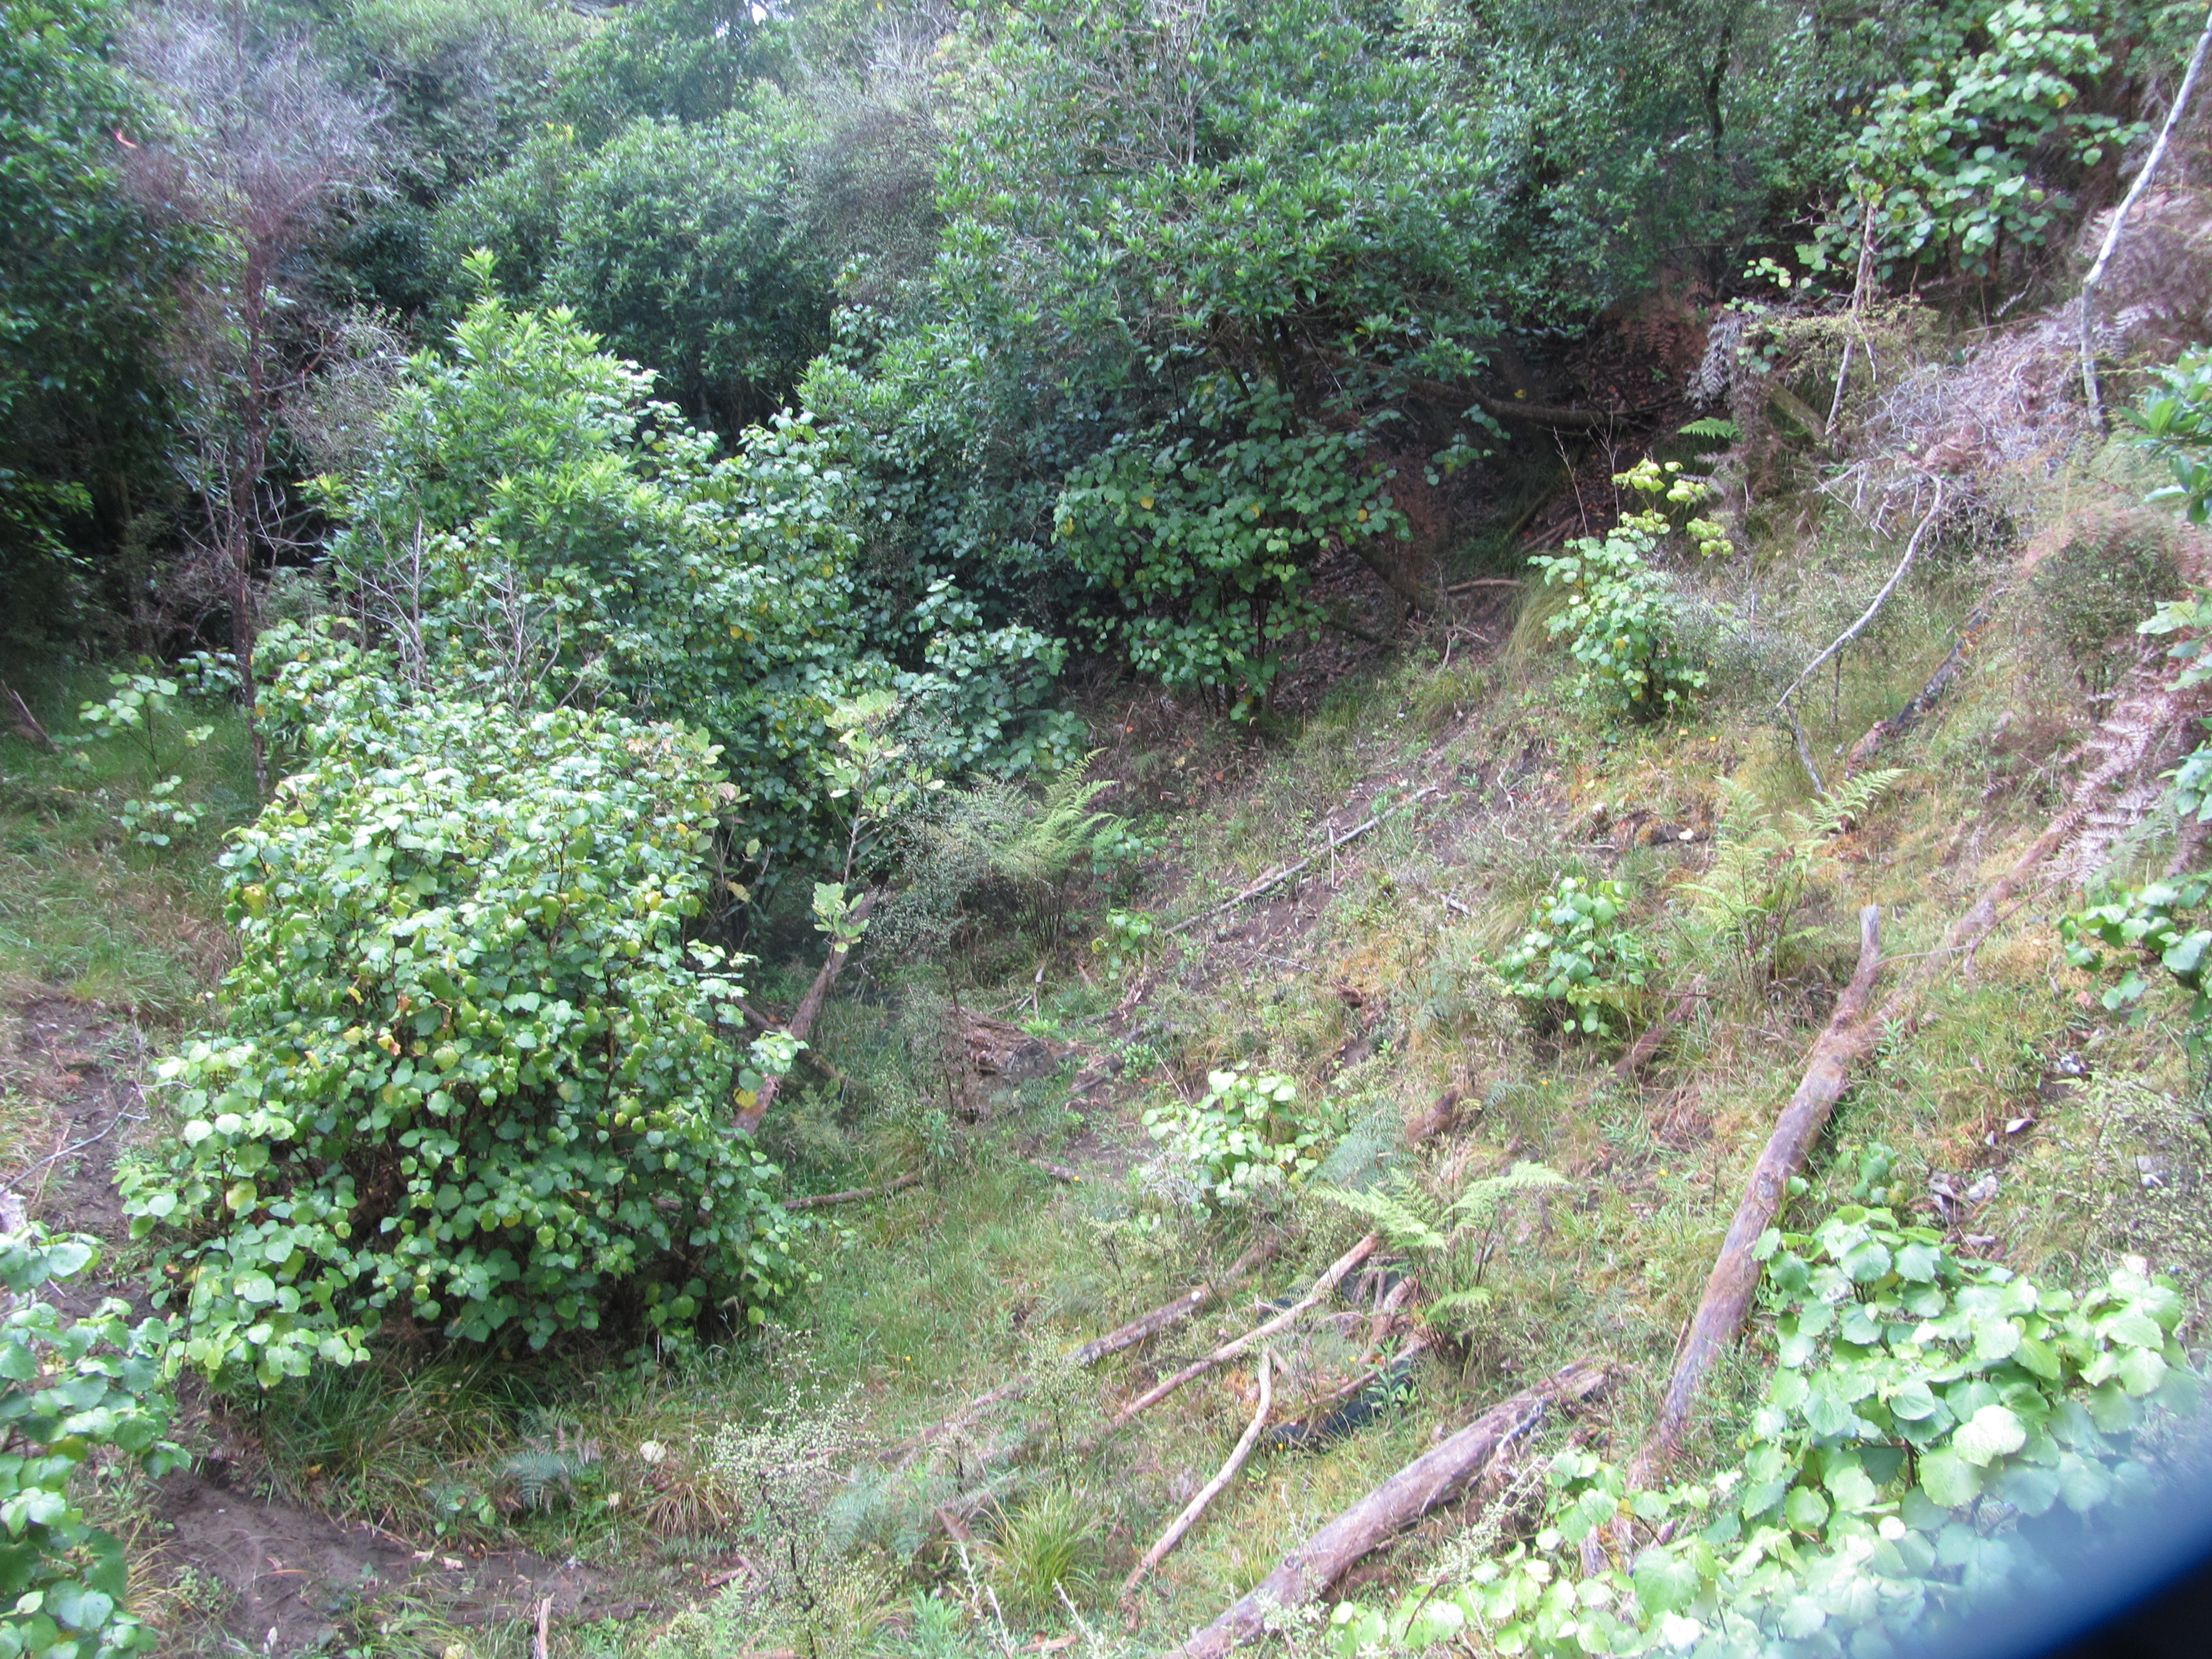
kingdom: Plantae
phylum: Tracheophyta
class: Magnoliopsida
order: Caryophyllales
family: Caryophyllaceae
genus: Cerastium
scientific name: Cerastium holosteoides
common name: Big chickweed
